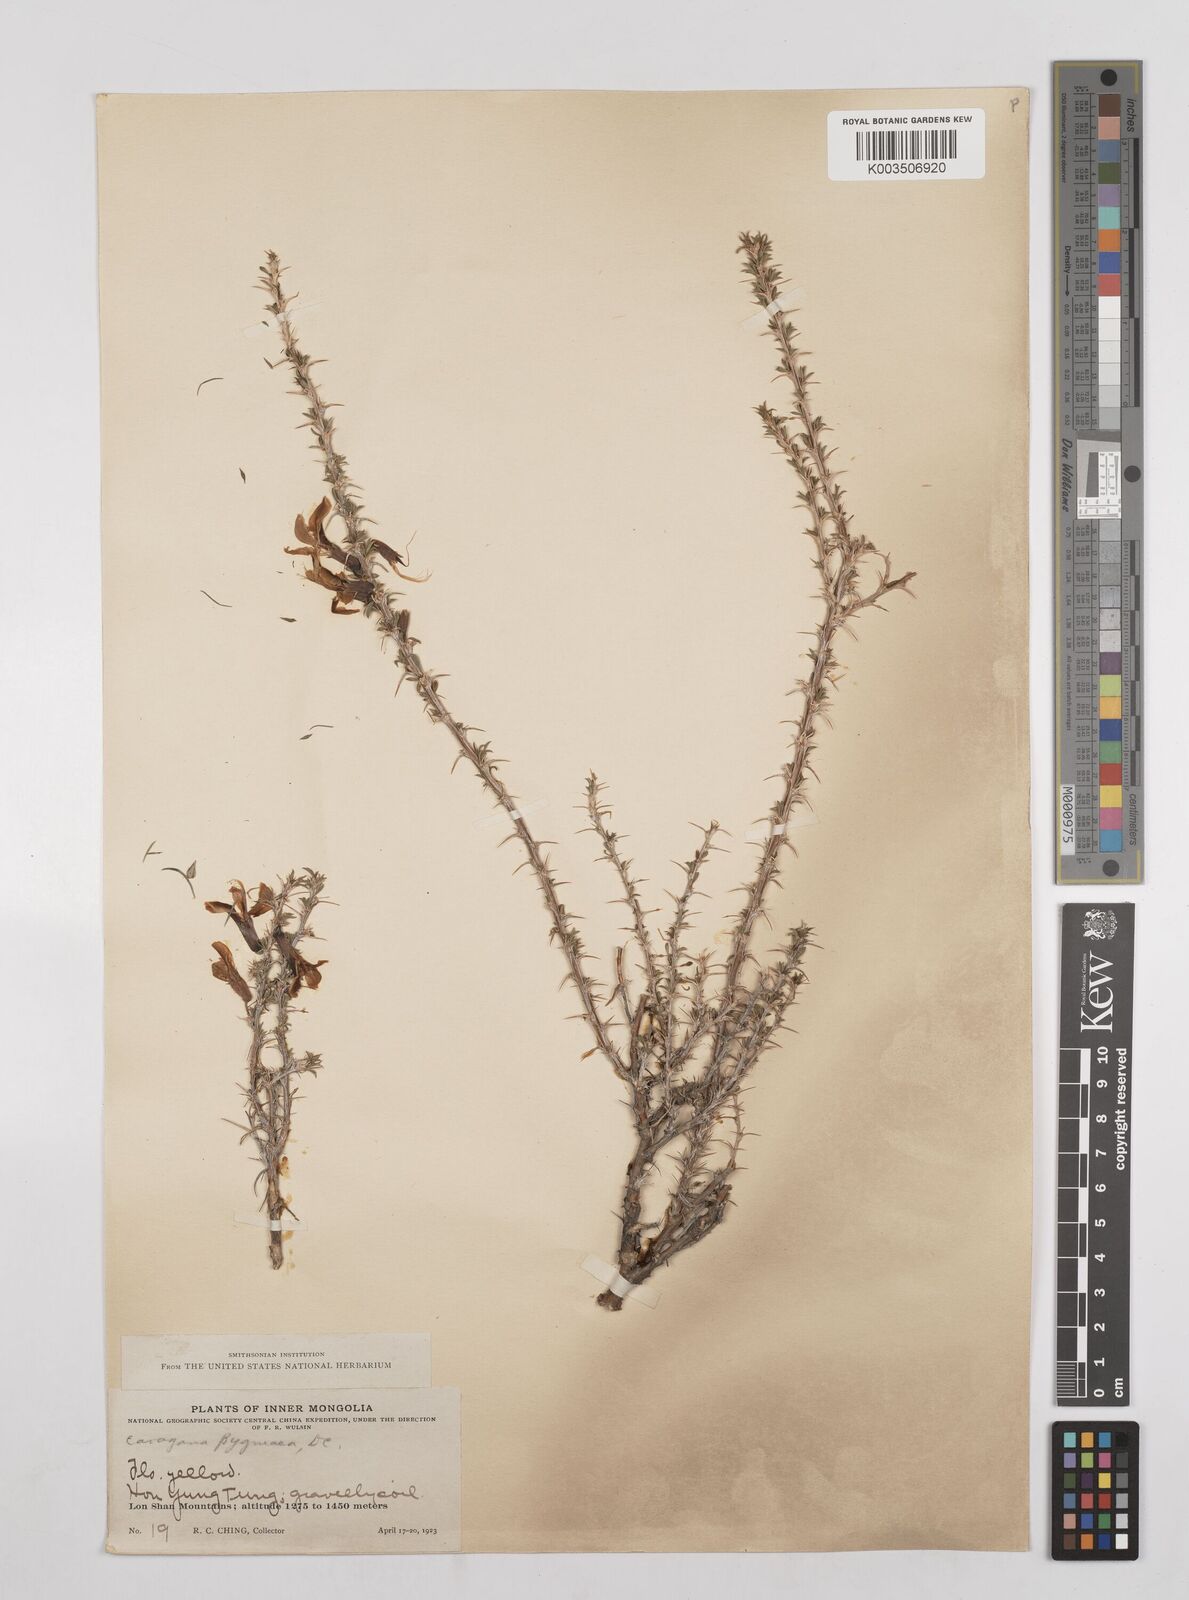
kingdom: Plantae
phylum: Tracheophyta
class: Magnoliopsida
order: Fabales
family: Fabaceae
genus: Caragana
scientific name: Caragana pygmaea
